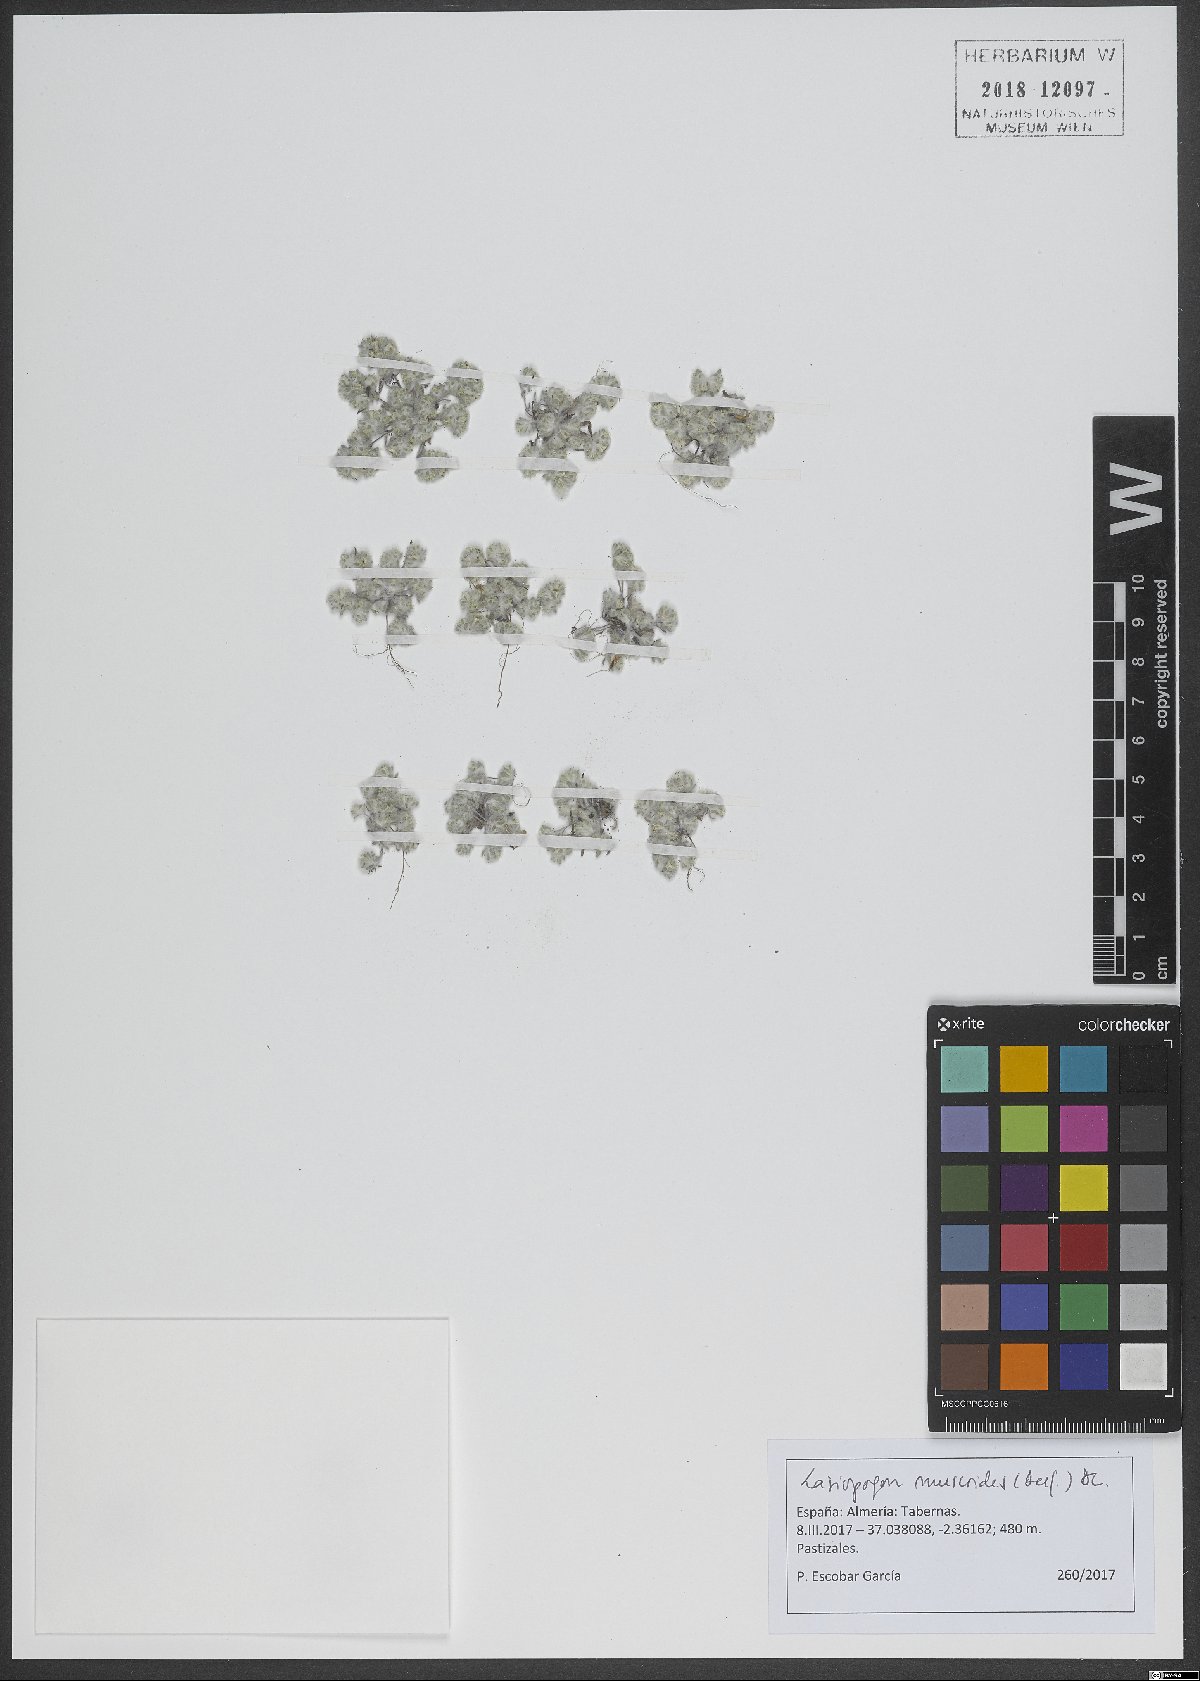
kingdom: Plantae
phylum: Tracheophyta
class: Magnoliopsida
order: Asterales
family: Asteraceae
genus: Lasiopogon
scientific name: Lasiopogon muscoides
